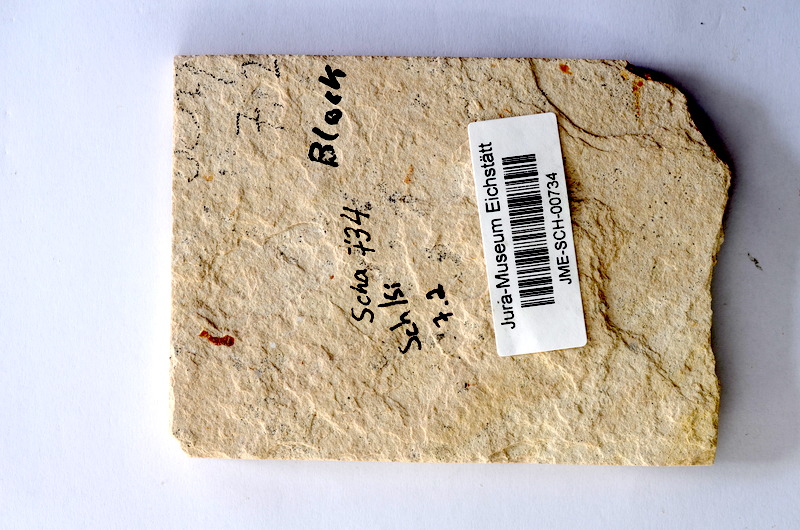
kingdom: Animalia
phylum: Chordata
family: Ophiopsiellidae
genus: Furo
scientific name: Furo
